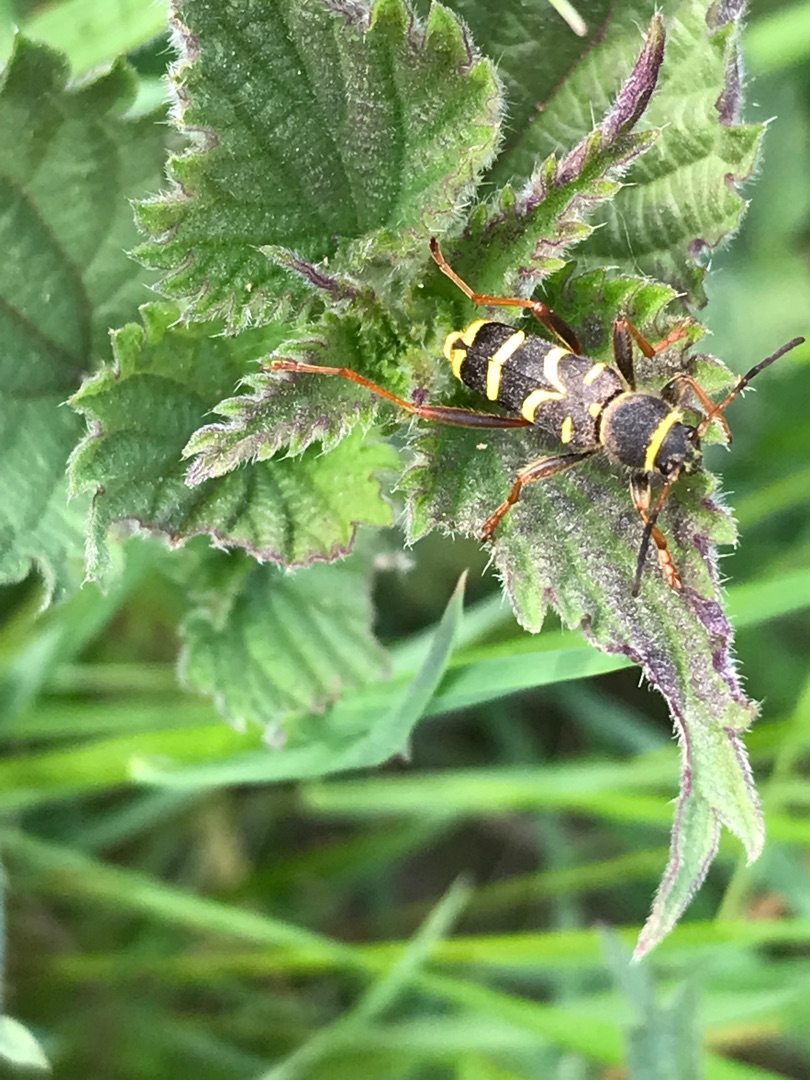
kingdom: Animalia
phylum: Arthropoda
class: Insecta
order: Coleoptera
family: Cerambycidae
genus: Clytus
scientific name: Clytus arietis
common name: Lille hvepsebuk
